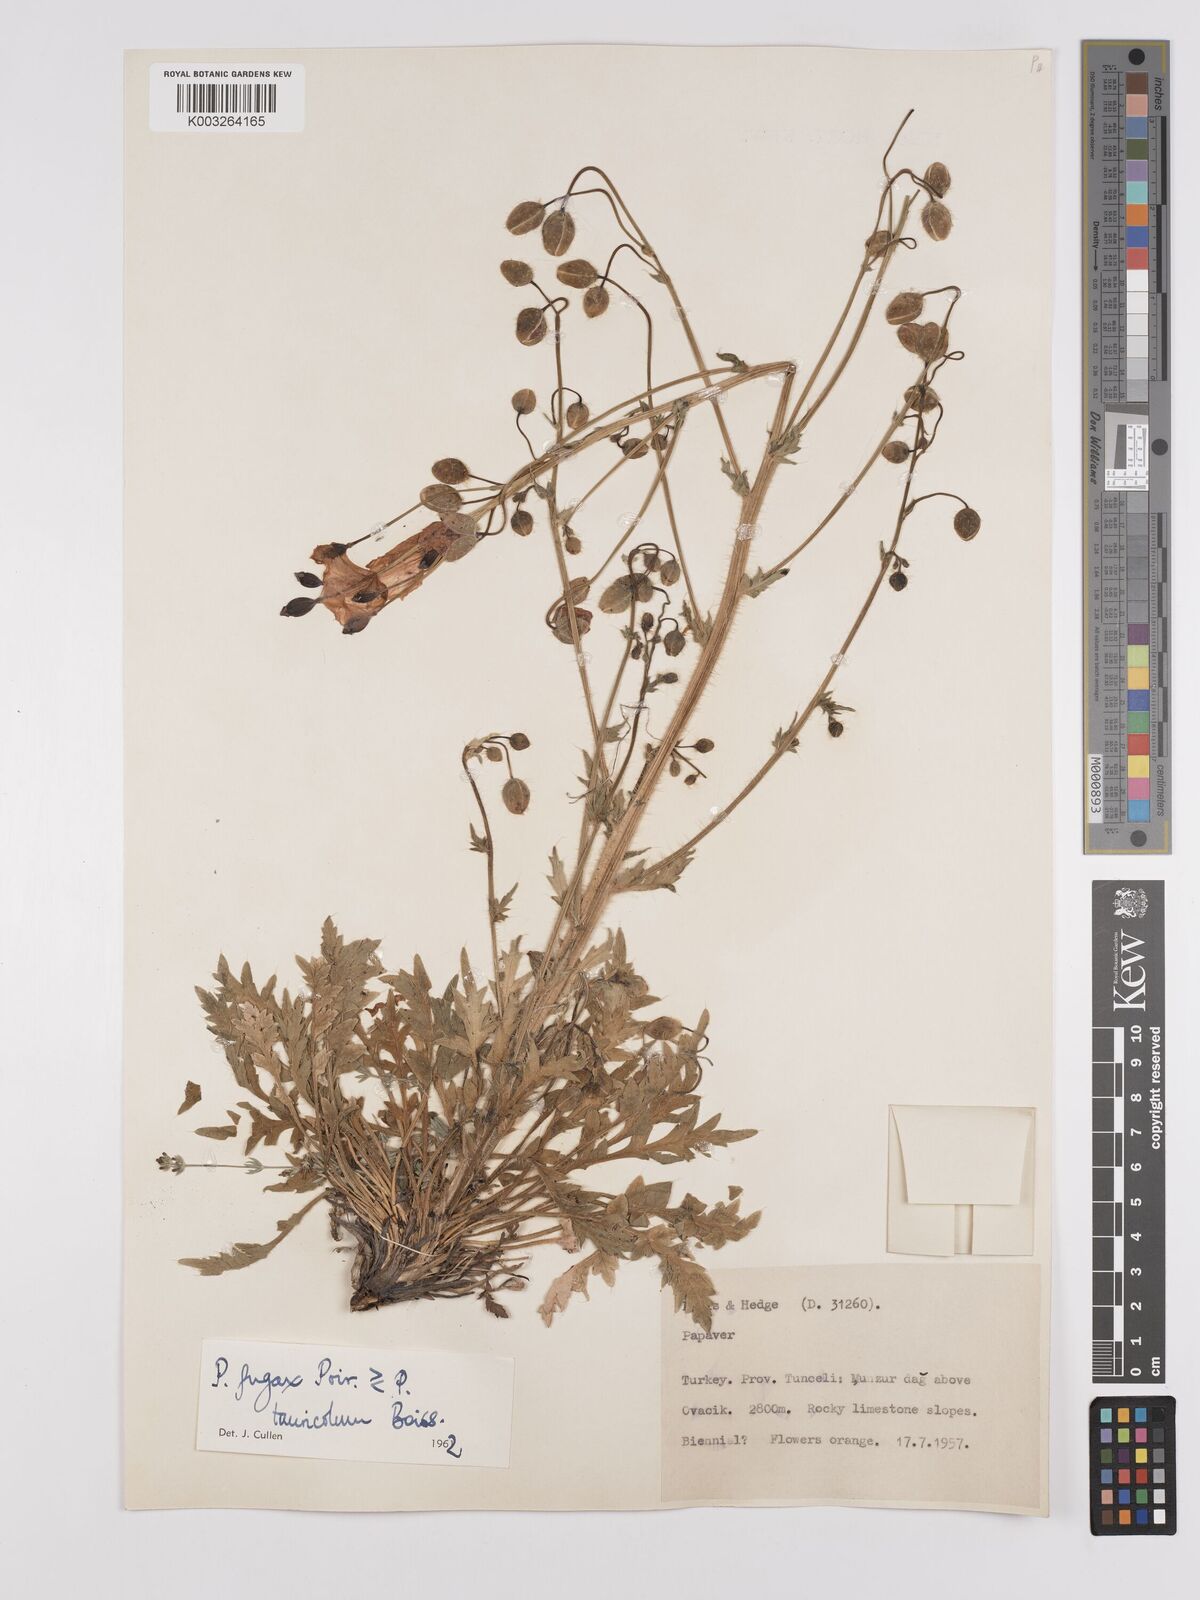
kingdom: Plantae
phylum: Tracheophyta
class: Magnoliopsida
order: Ranunculales
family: Papaveraceae
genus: Papaver
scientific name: Papaver armeniacum
